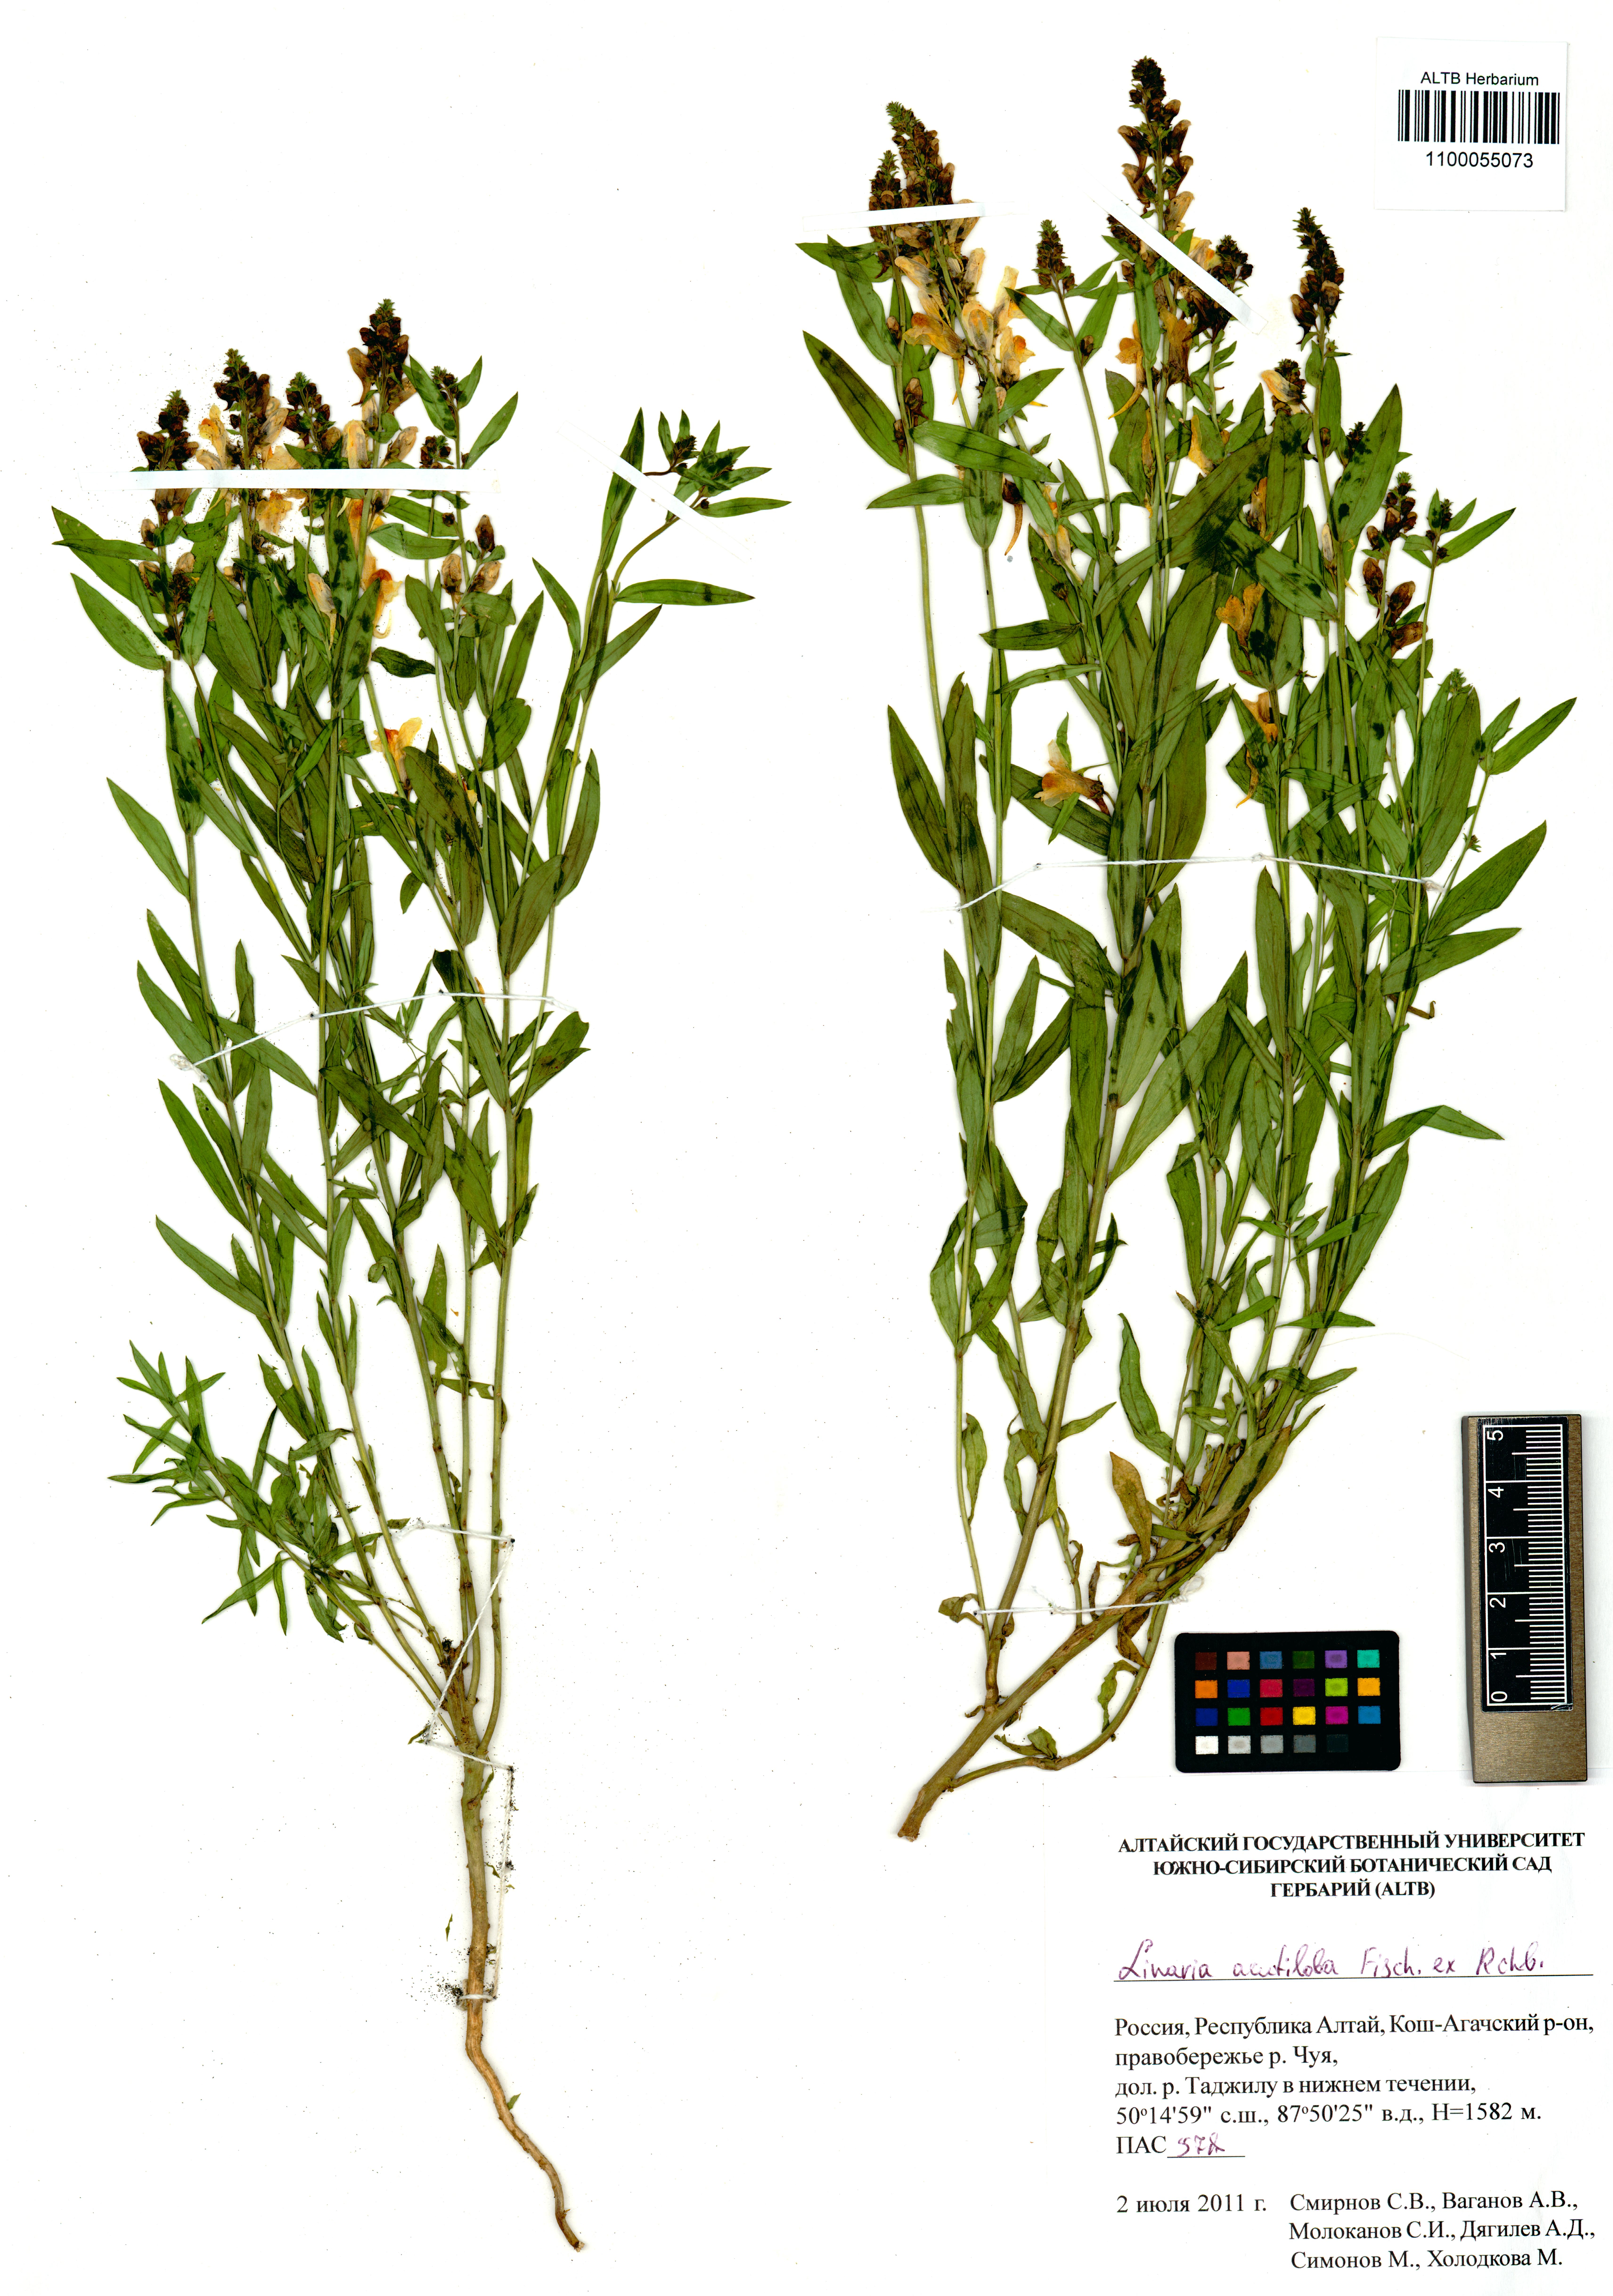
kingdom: Plantae
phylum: Tracheophyta
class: Magnoliopsida
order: Lamiales
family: Plantaginaceae
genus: Linaria
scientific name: Linaria acutiloba
